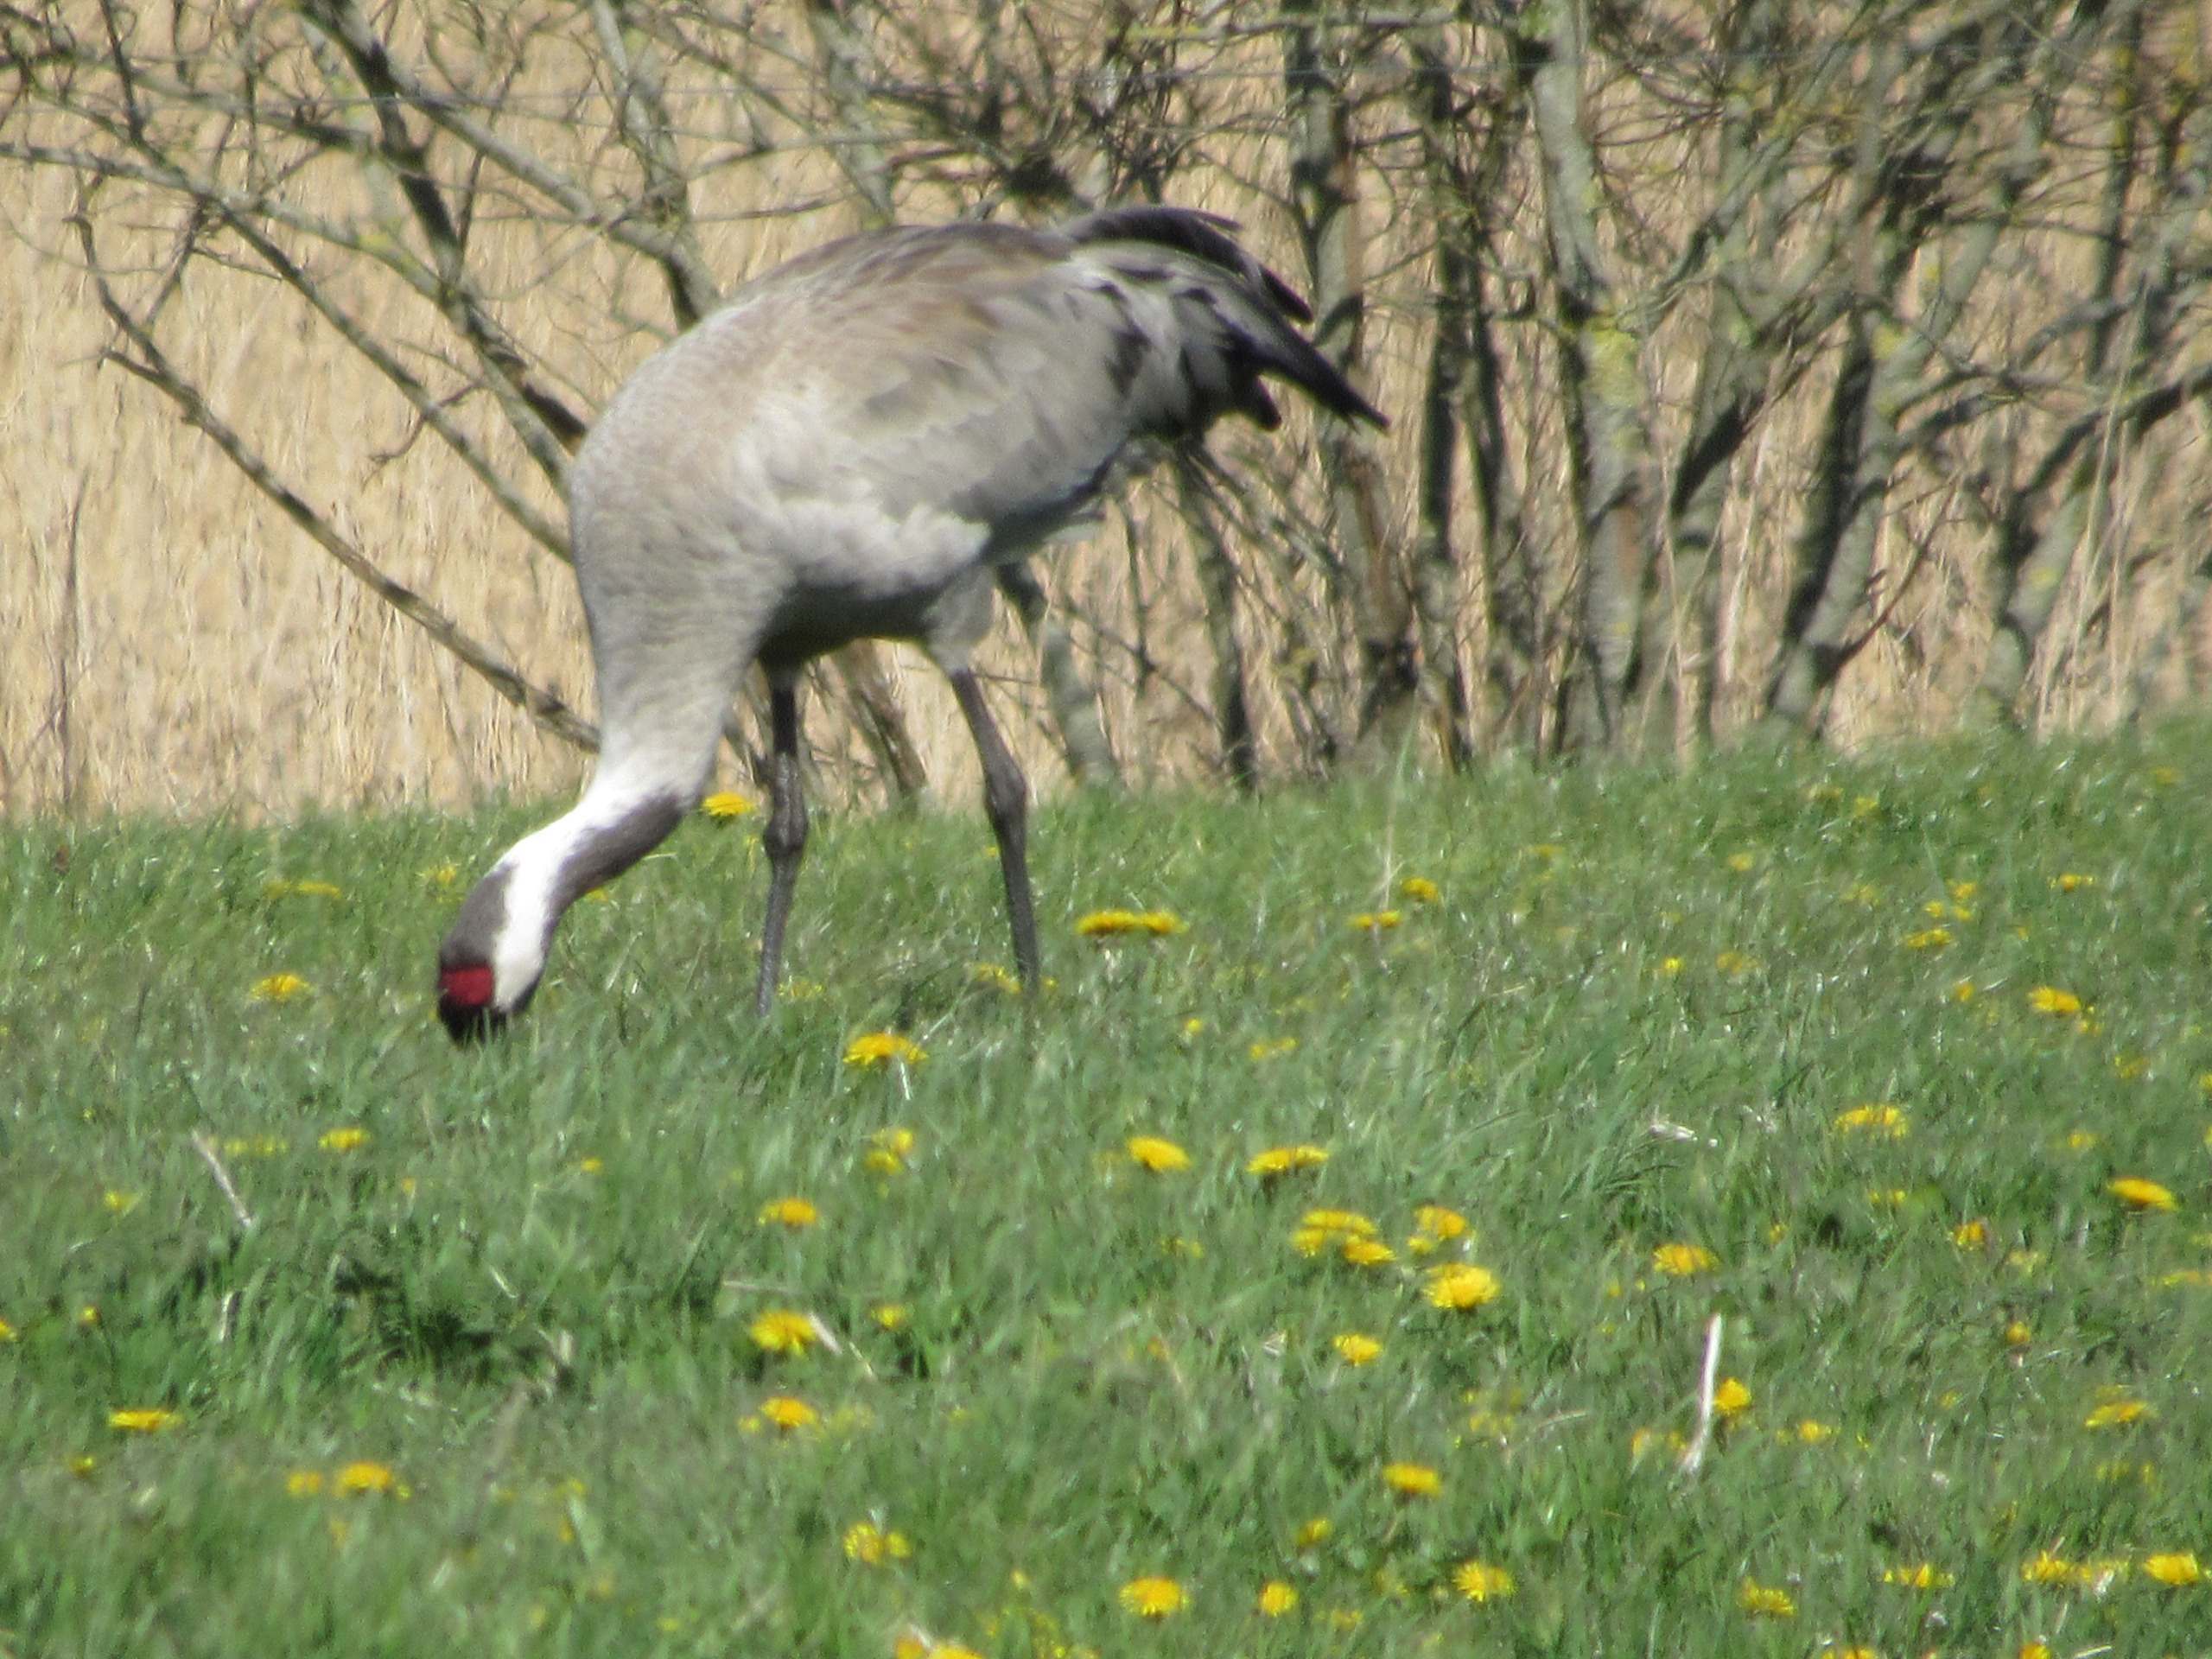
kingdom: Animalia
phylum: Chordata
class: Aves
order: Gruiformes
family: Gruidae
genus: Grus
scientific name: Grus grus
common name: Trane
